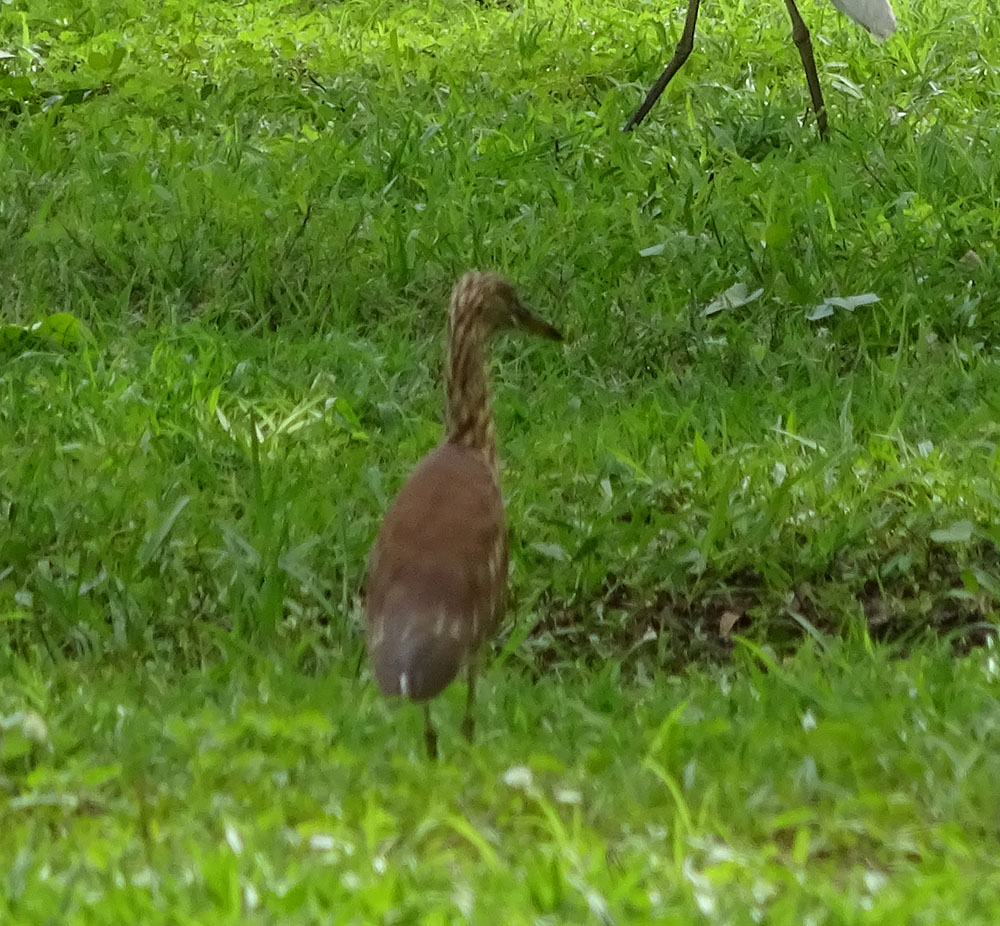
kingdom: Animalia
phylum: Chordata
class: Aves
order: Pelecaniformes
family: Ardeidae
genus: Ardeola
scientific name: Ardeola grayii
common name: Indian pond heron
